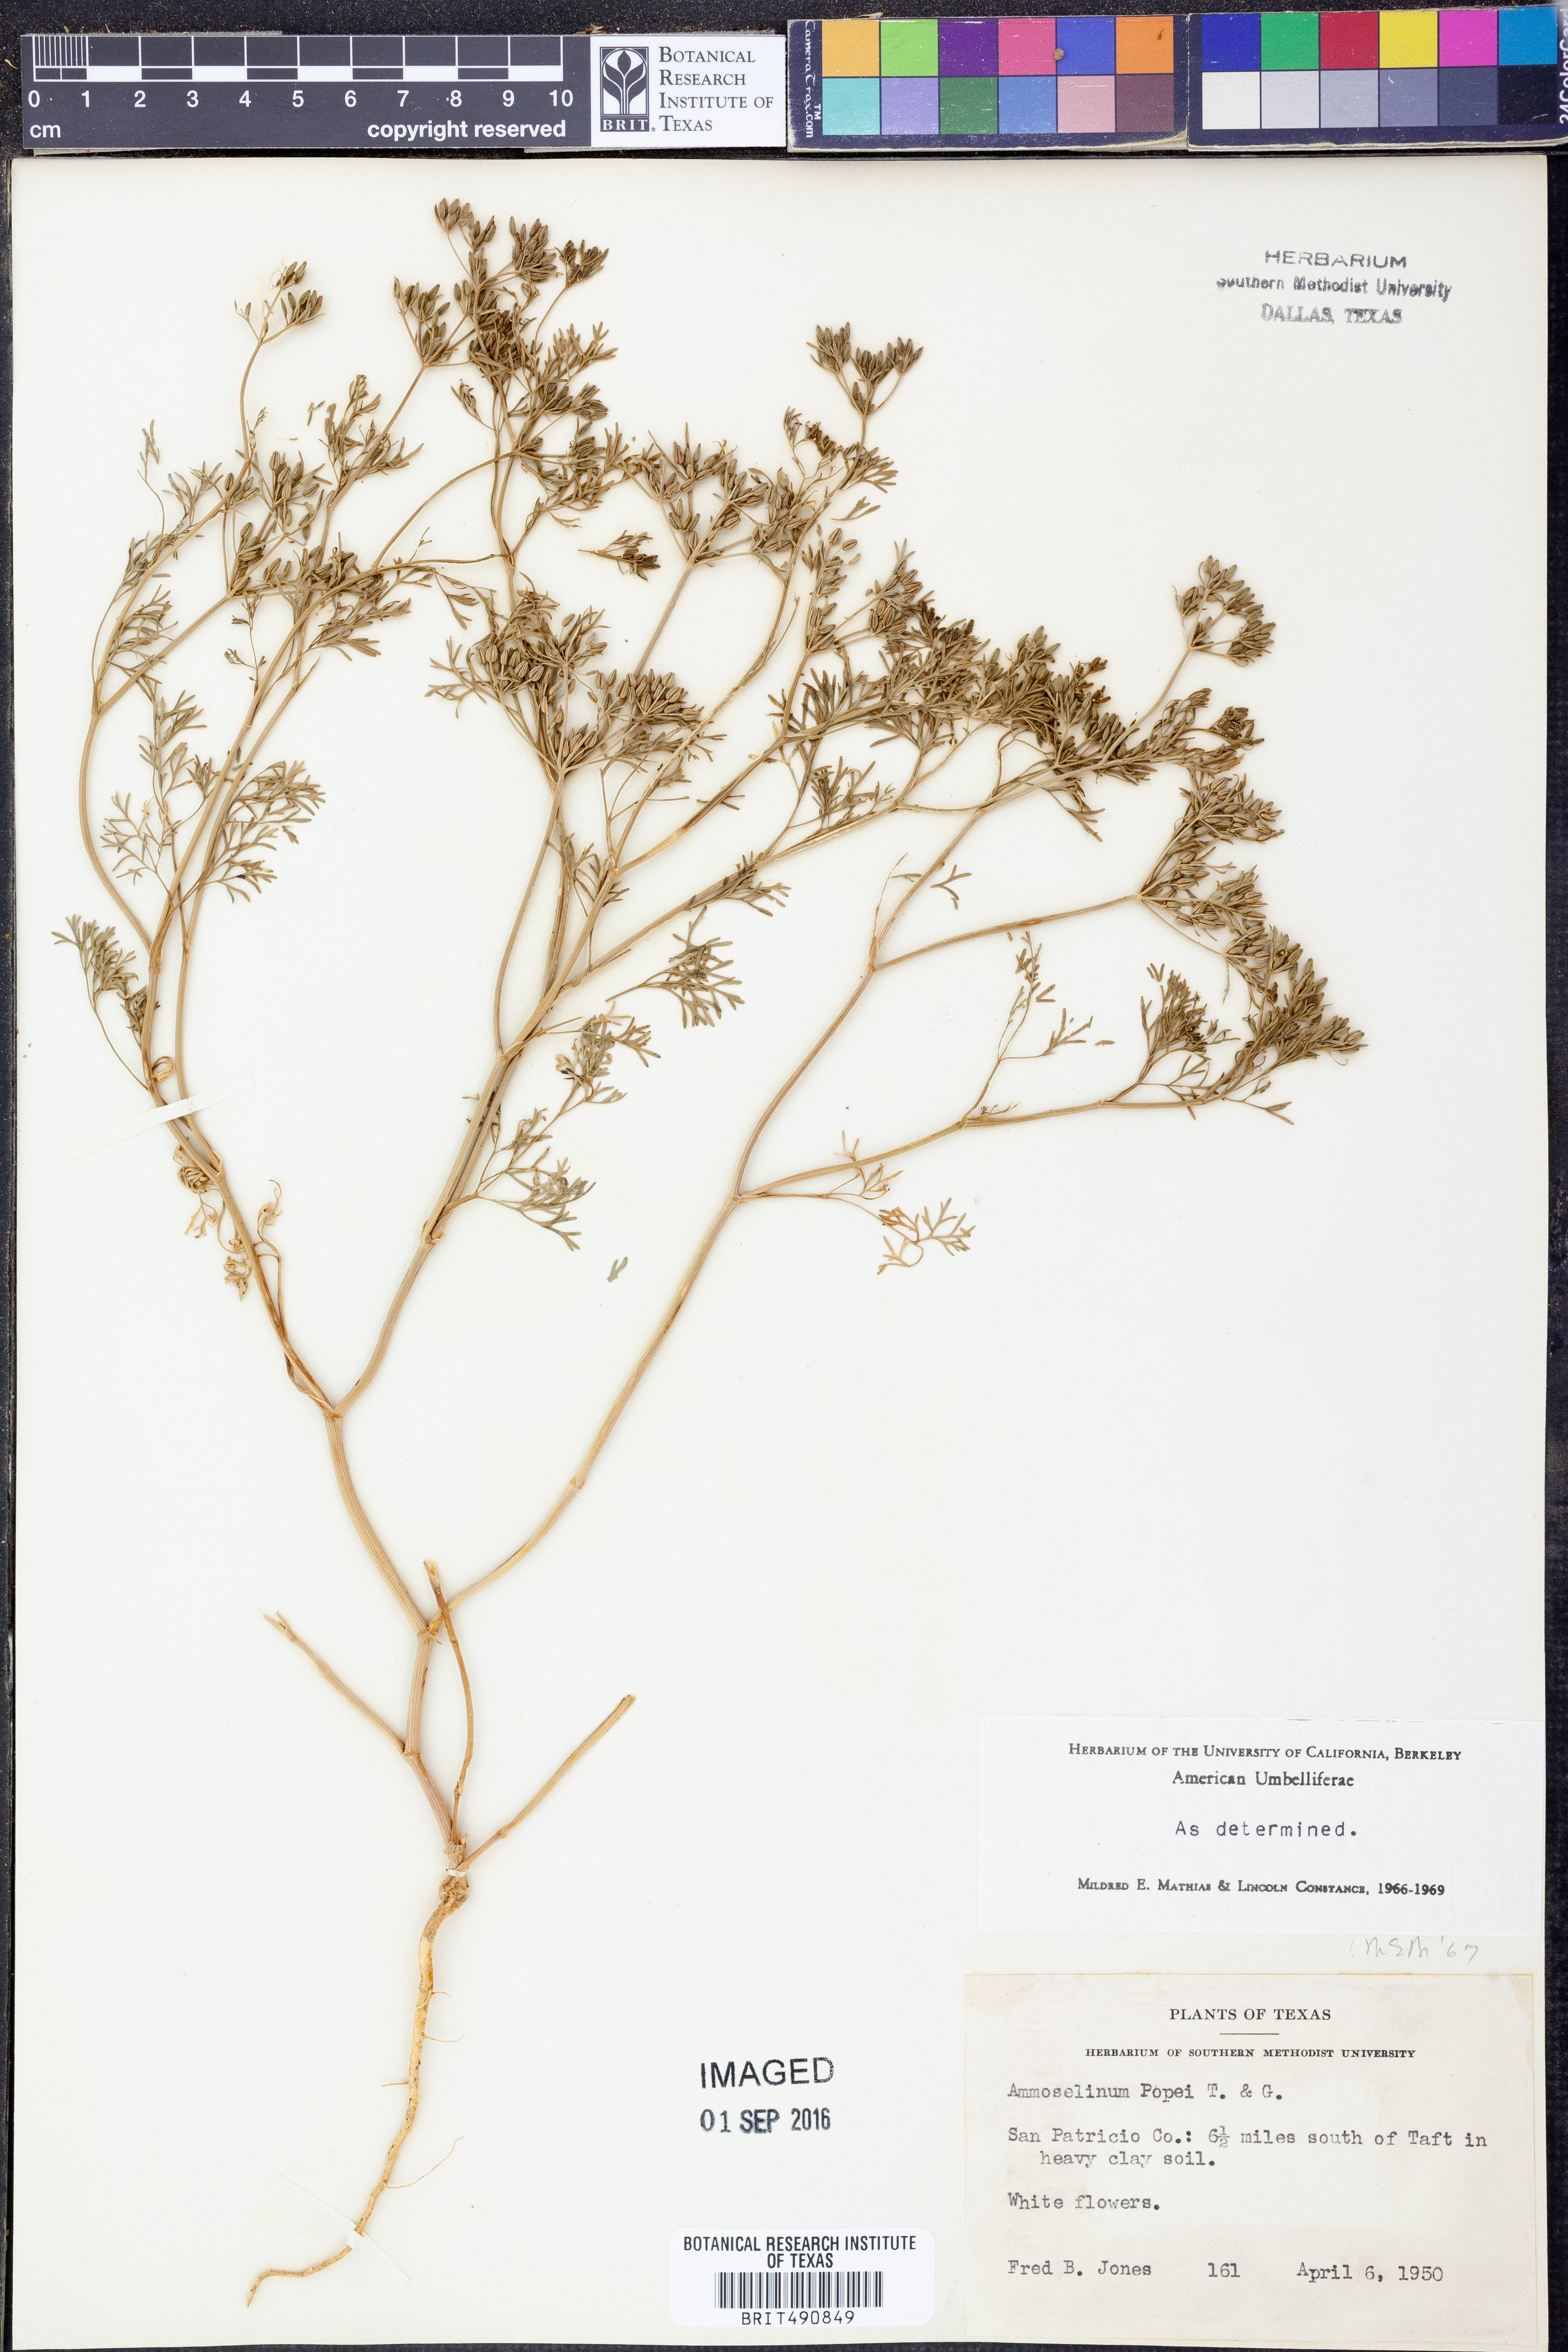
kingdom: Plantae
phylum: Tracheophyta
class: Magnoliopsida
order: Apiales
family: Apiaceae
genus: Ammoselinum
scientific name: Ammoselinum popei
